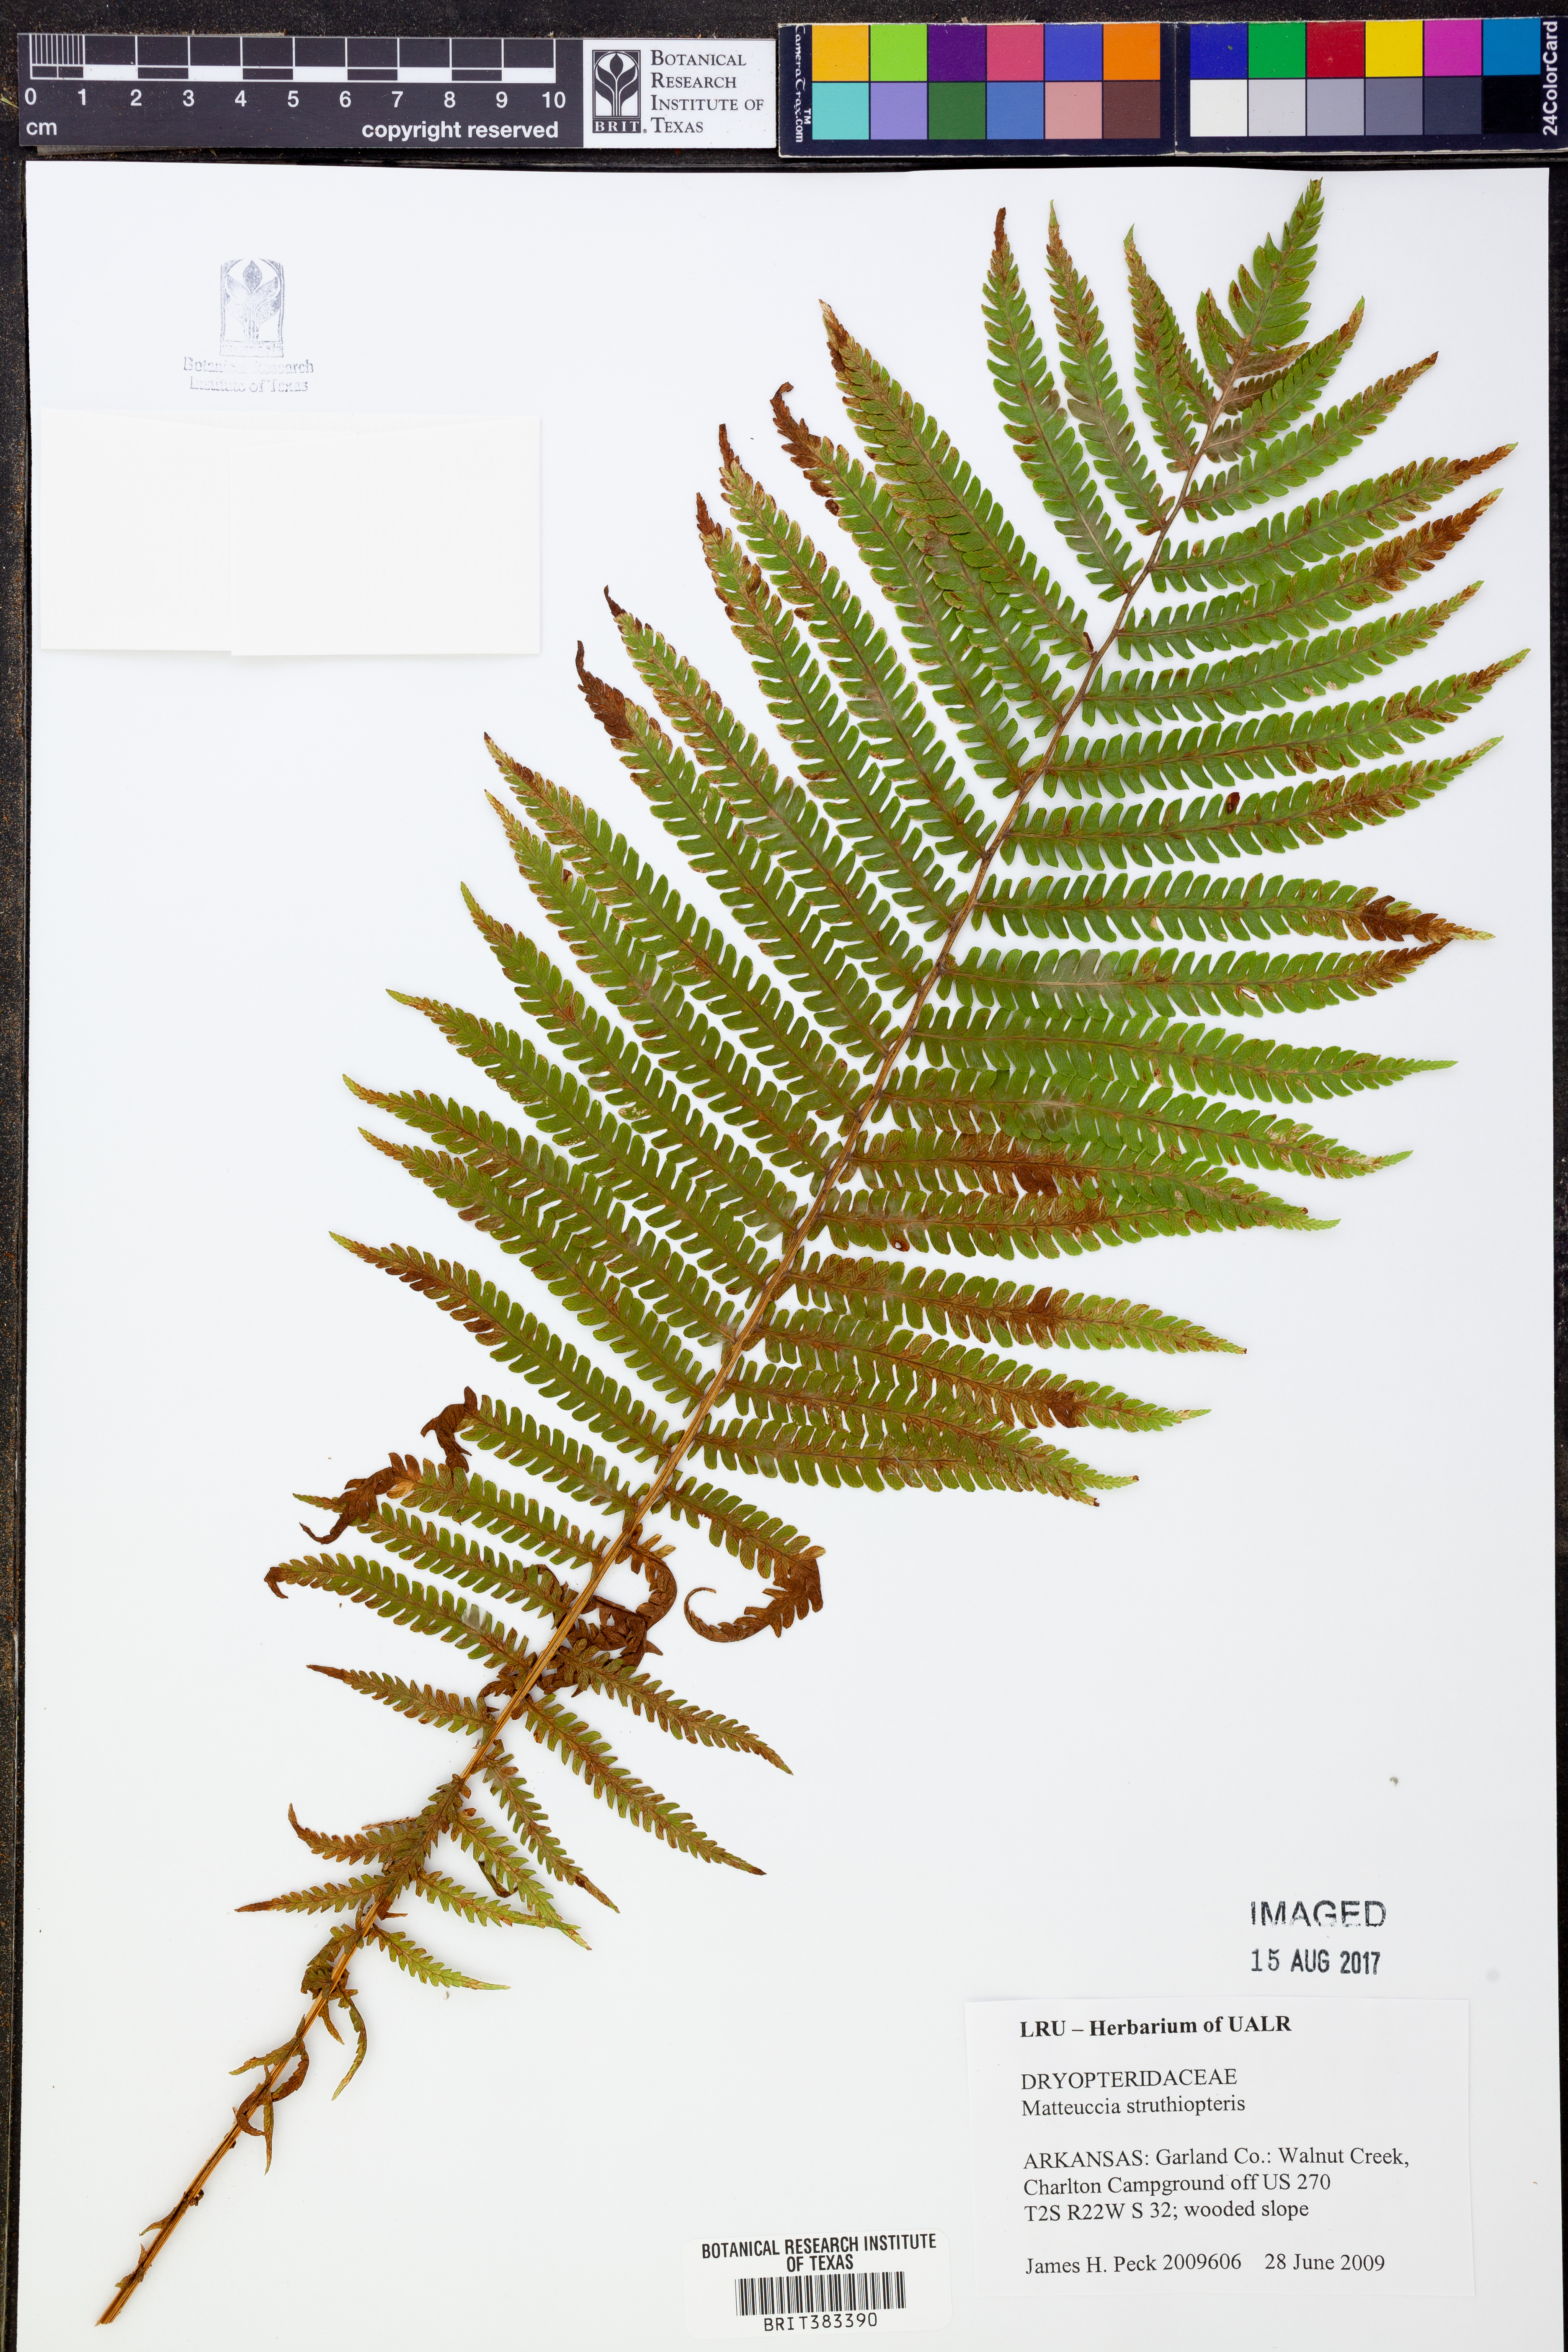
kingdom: Plantae
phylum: Tracheophyta
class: Polypodiopsida
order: Polypodiales
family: Onocleaceae
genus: Matteuccia
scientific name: Matteuccia struthiopteris
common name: Ostrich fern
